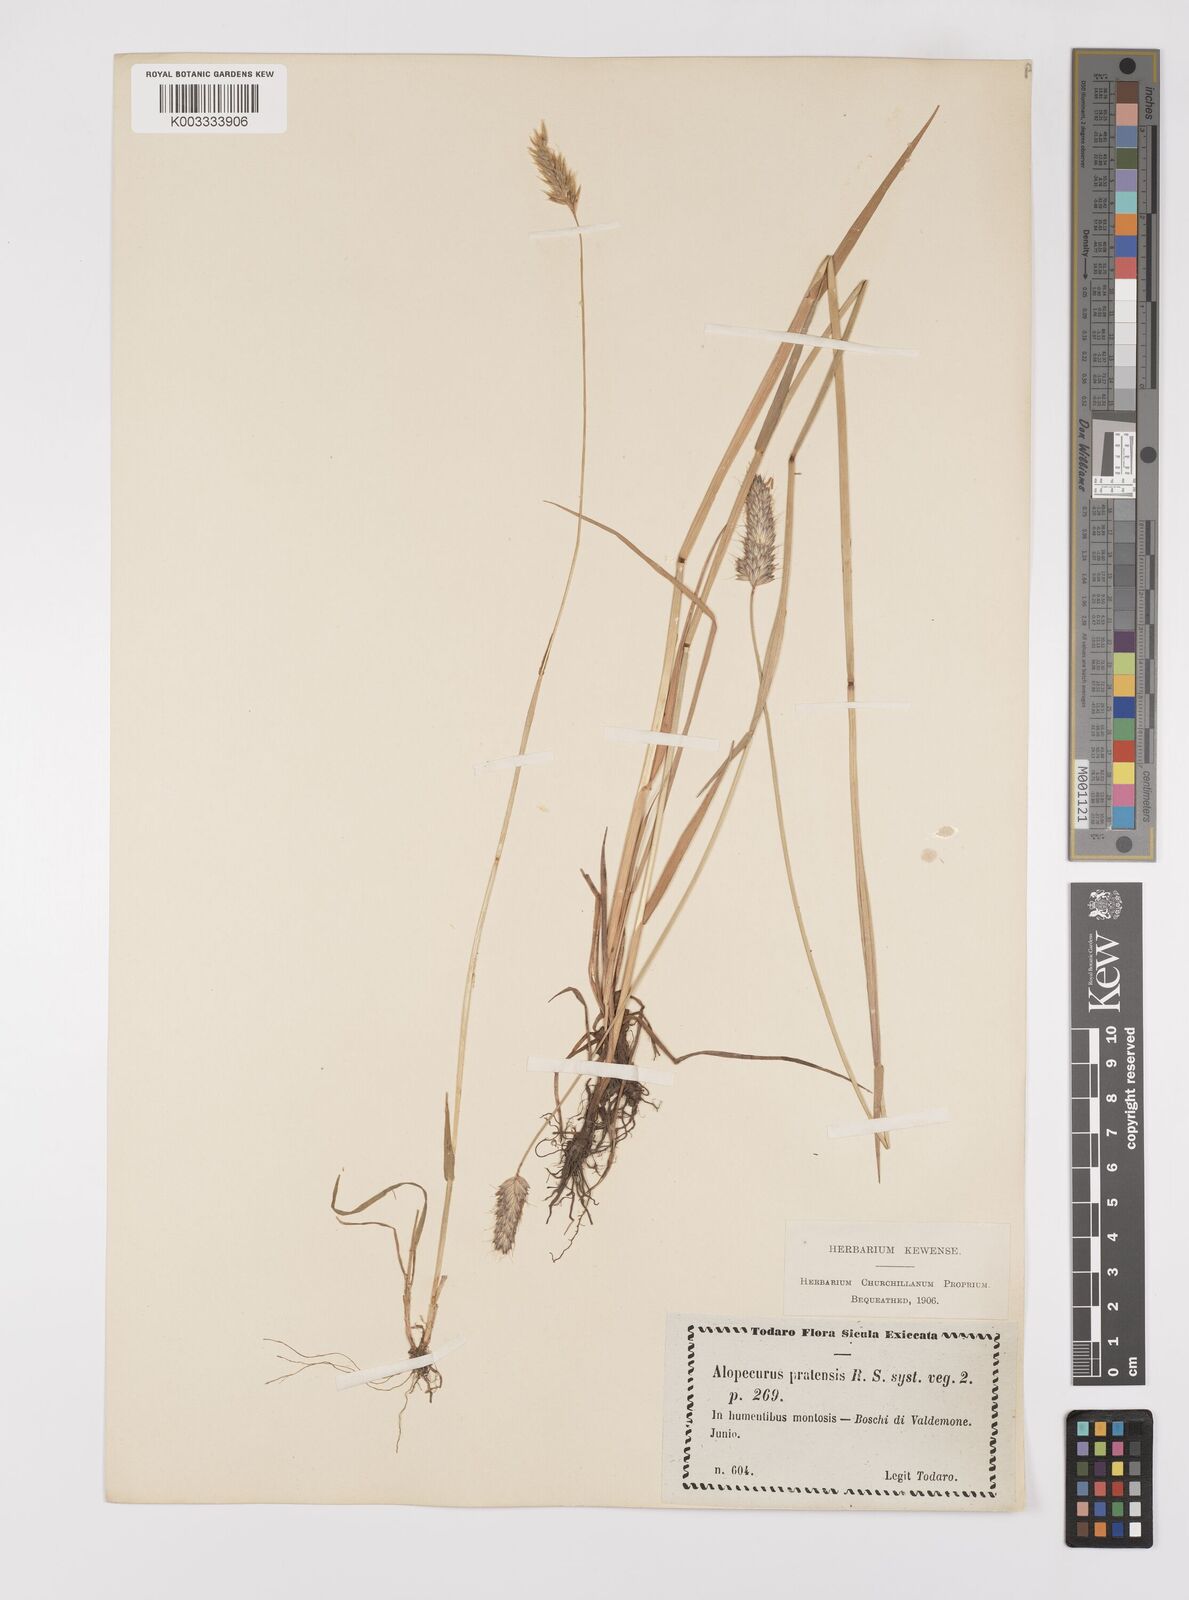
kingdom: Plantae
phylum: Tracheophyta
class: Liliopsida
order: Poales
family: Poaceae
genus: Alopecurus
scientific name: Alopecurus pratensis
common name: Meadow foxtail
